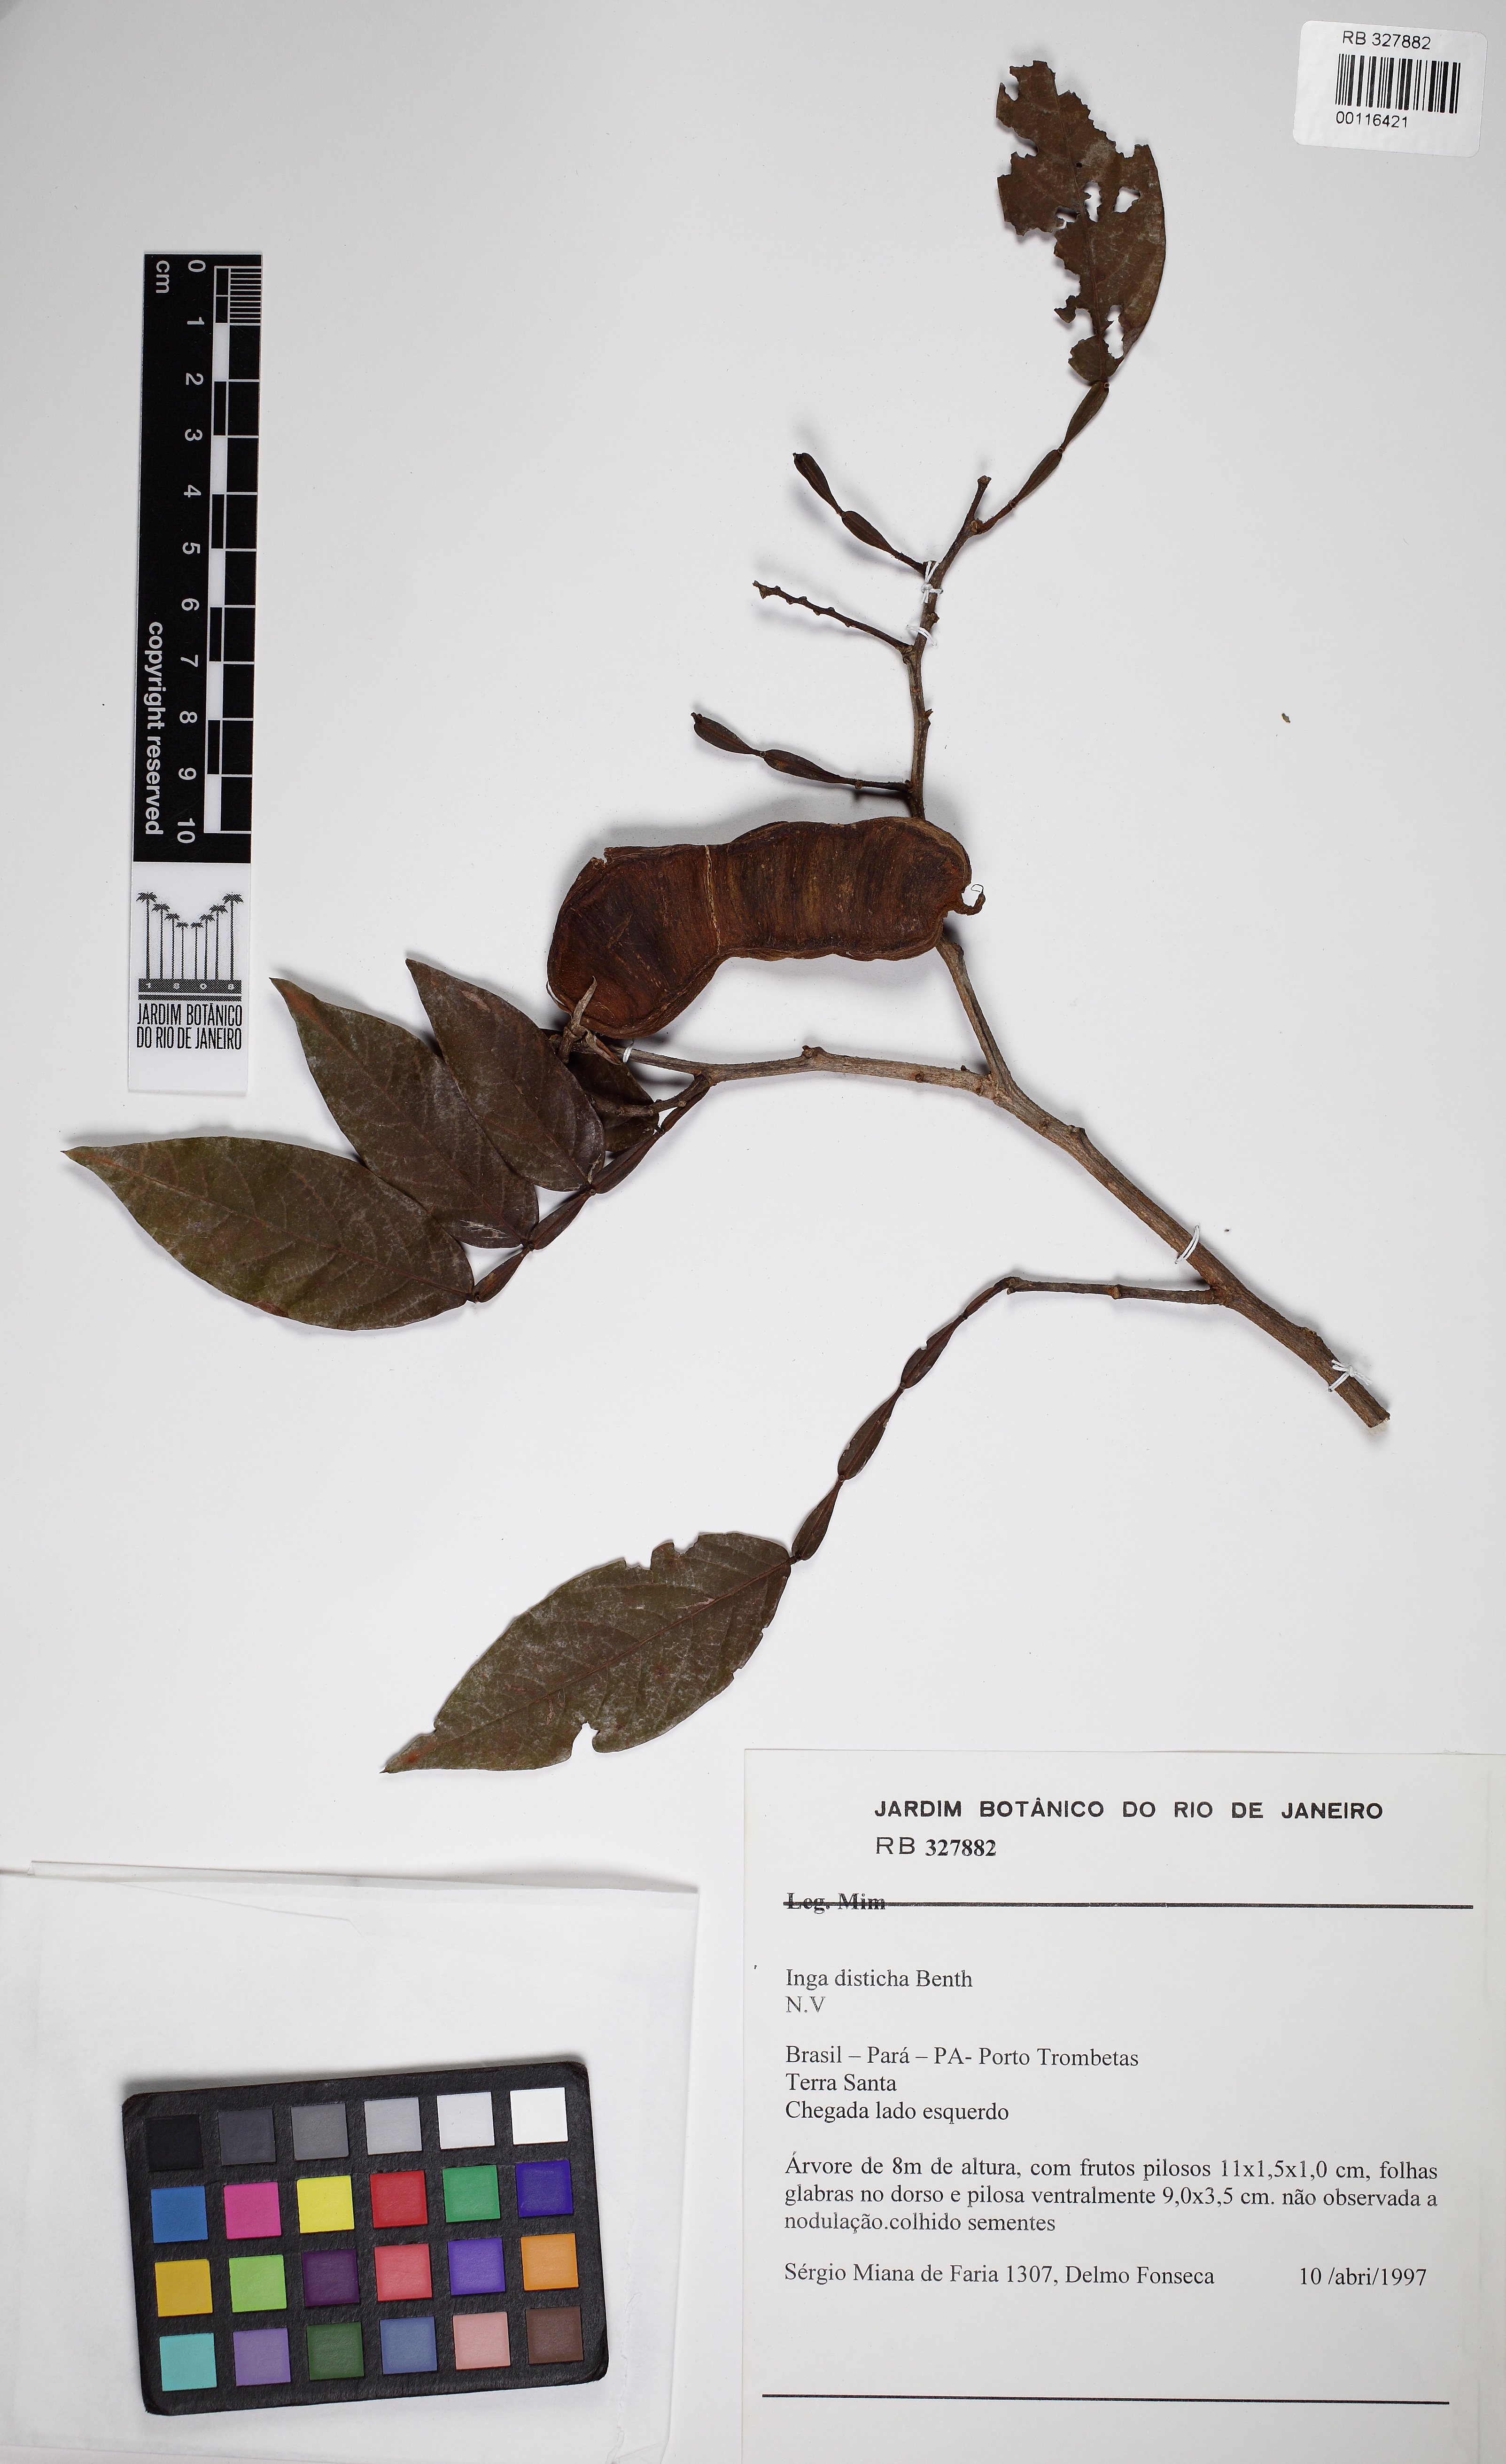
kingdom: Plantae
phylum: Tracheophyta
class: Magnoliopsida
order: Fabales
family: Fabaceae
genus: Inga
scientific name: Inga disticha
